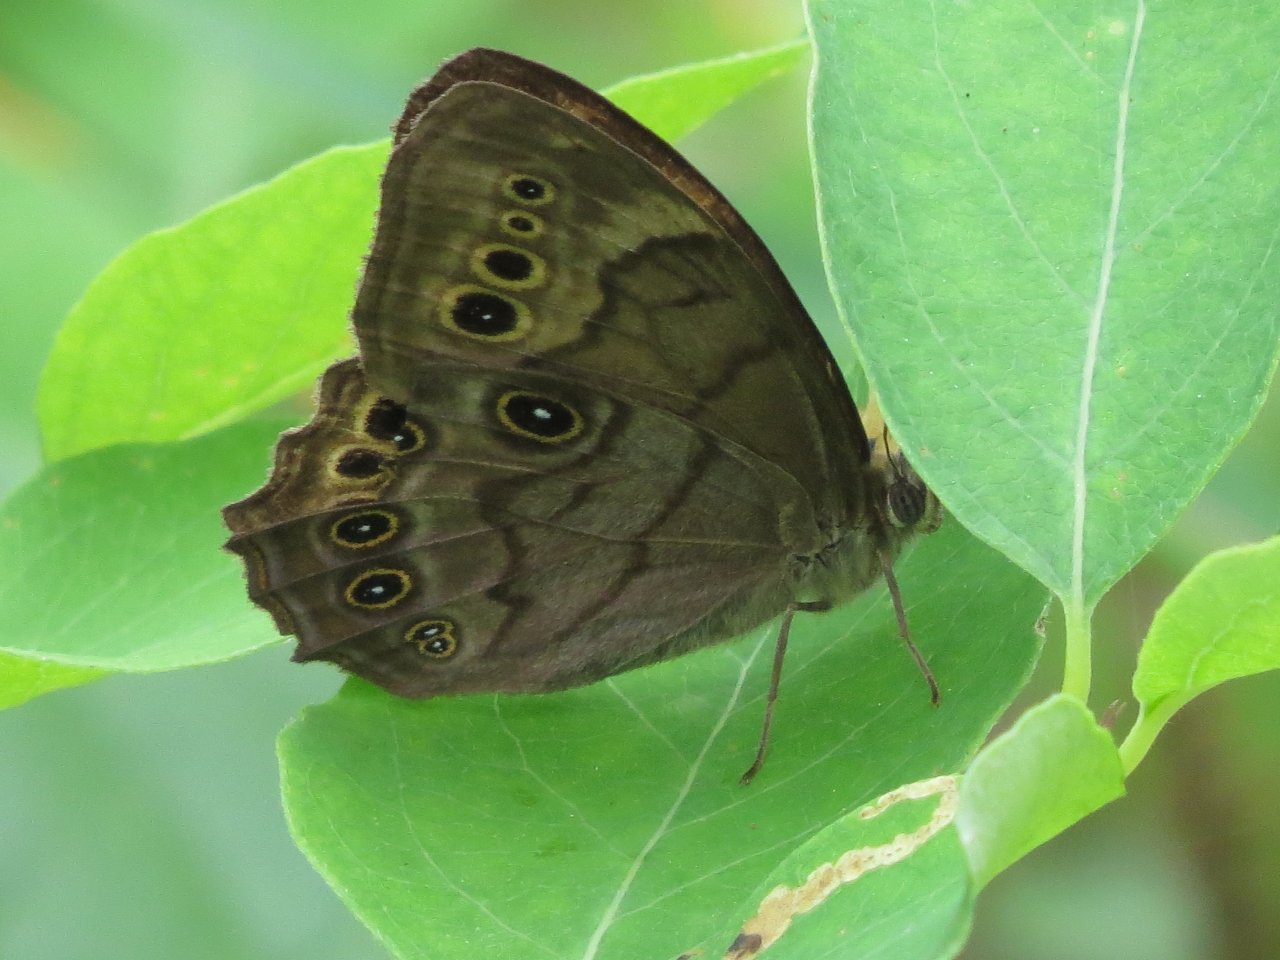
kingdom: Animalia
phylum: Arthropoda
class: Insecta
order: Lepidoptera
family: Nymphalidae
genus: Lethe
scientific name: Lethe anthedon
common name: Northern Pearly-Eye
